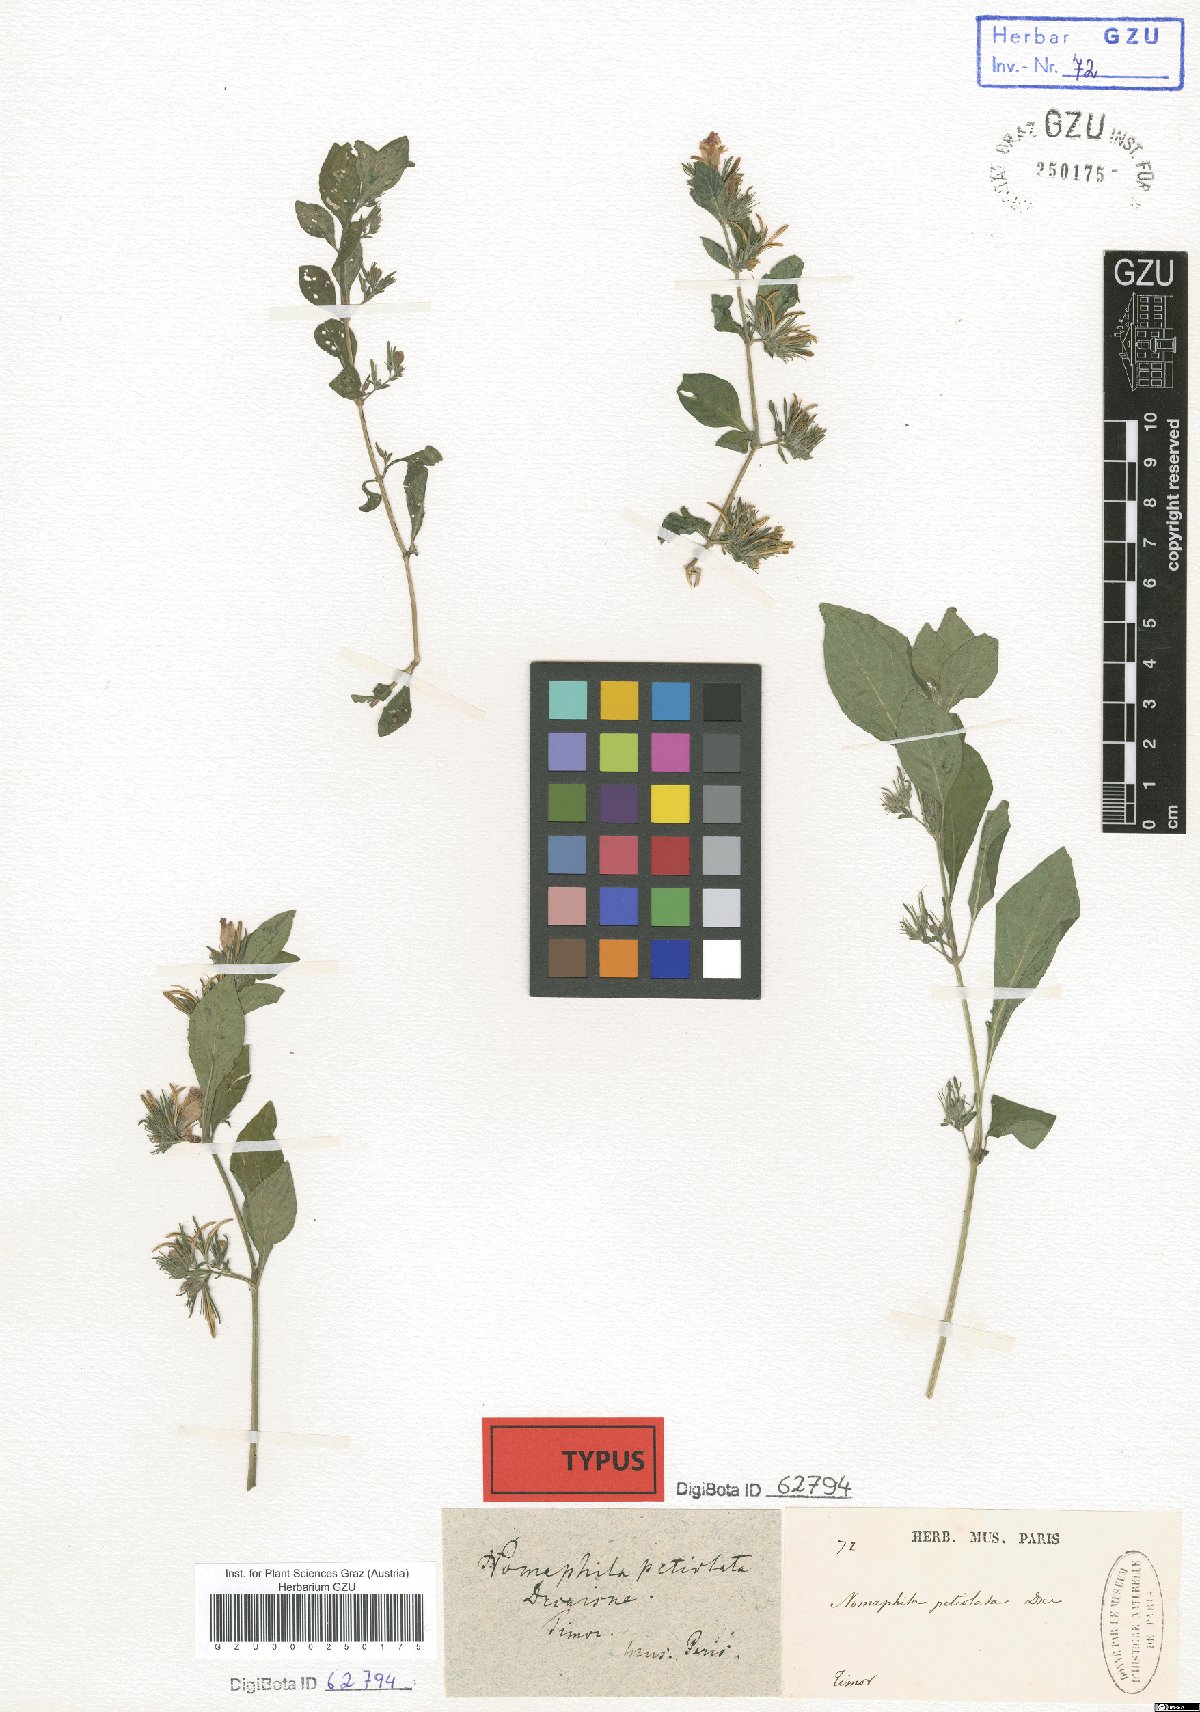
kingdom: Plantae
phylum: Tracheophyta
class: Magnoliopsida
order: Lamiales
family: Acanthaceae
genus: Hygrophila
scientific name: Hygrophila petiolata
